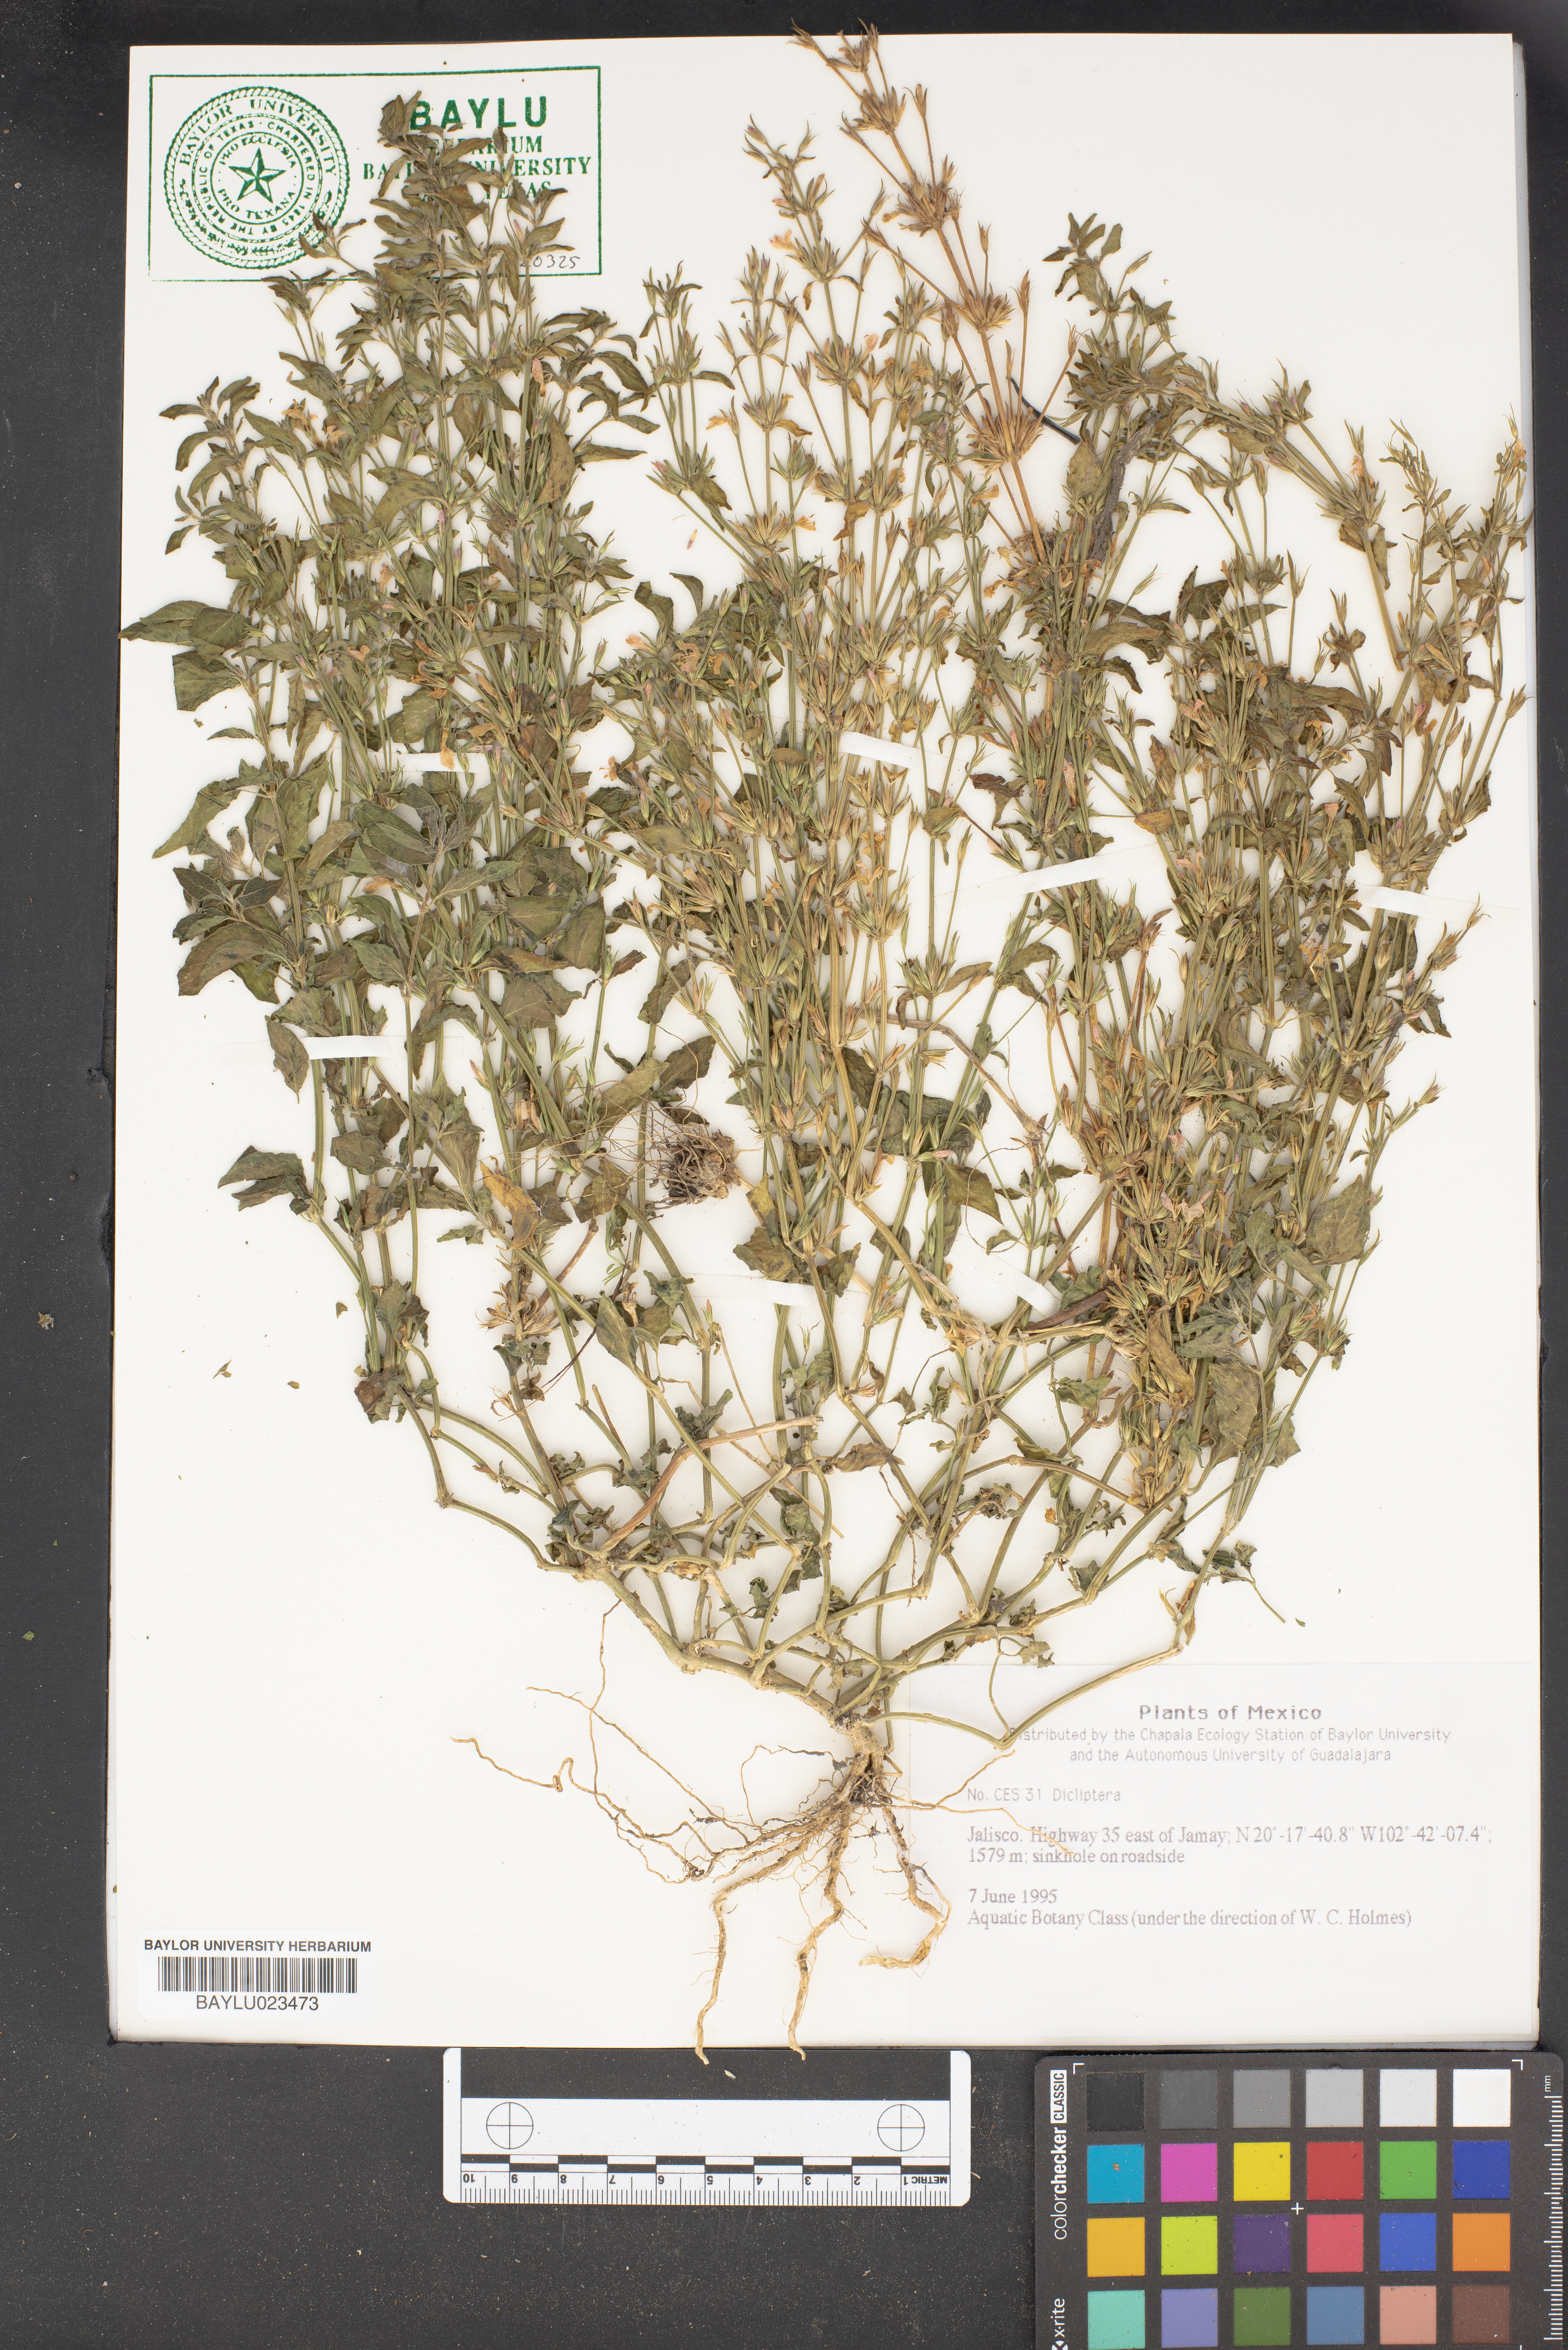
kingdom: Plantae
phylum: Tracheophyta
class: Magnoliopsida
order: Lamiales
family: Acanthaceae
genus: Dicliptera
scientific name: Dicliptera acuminata
